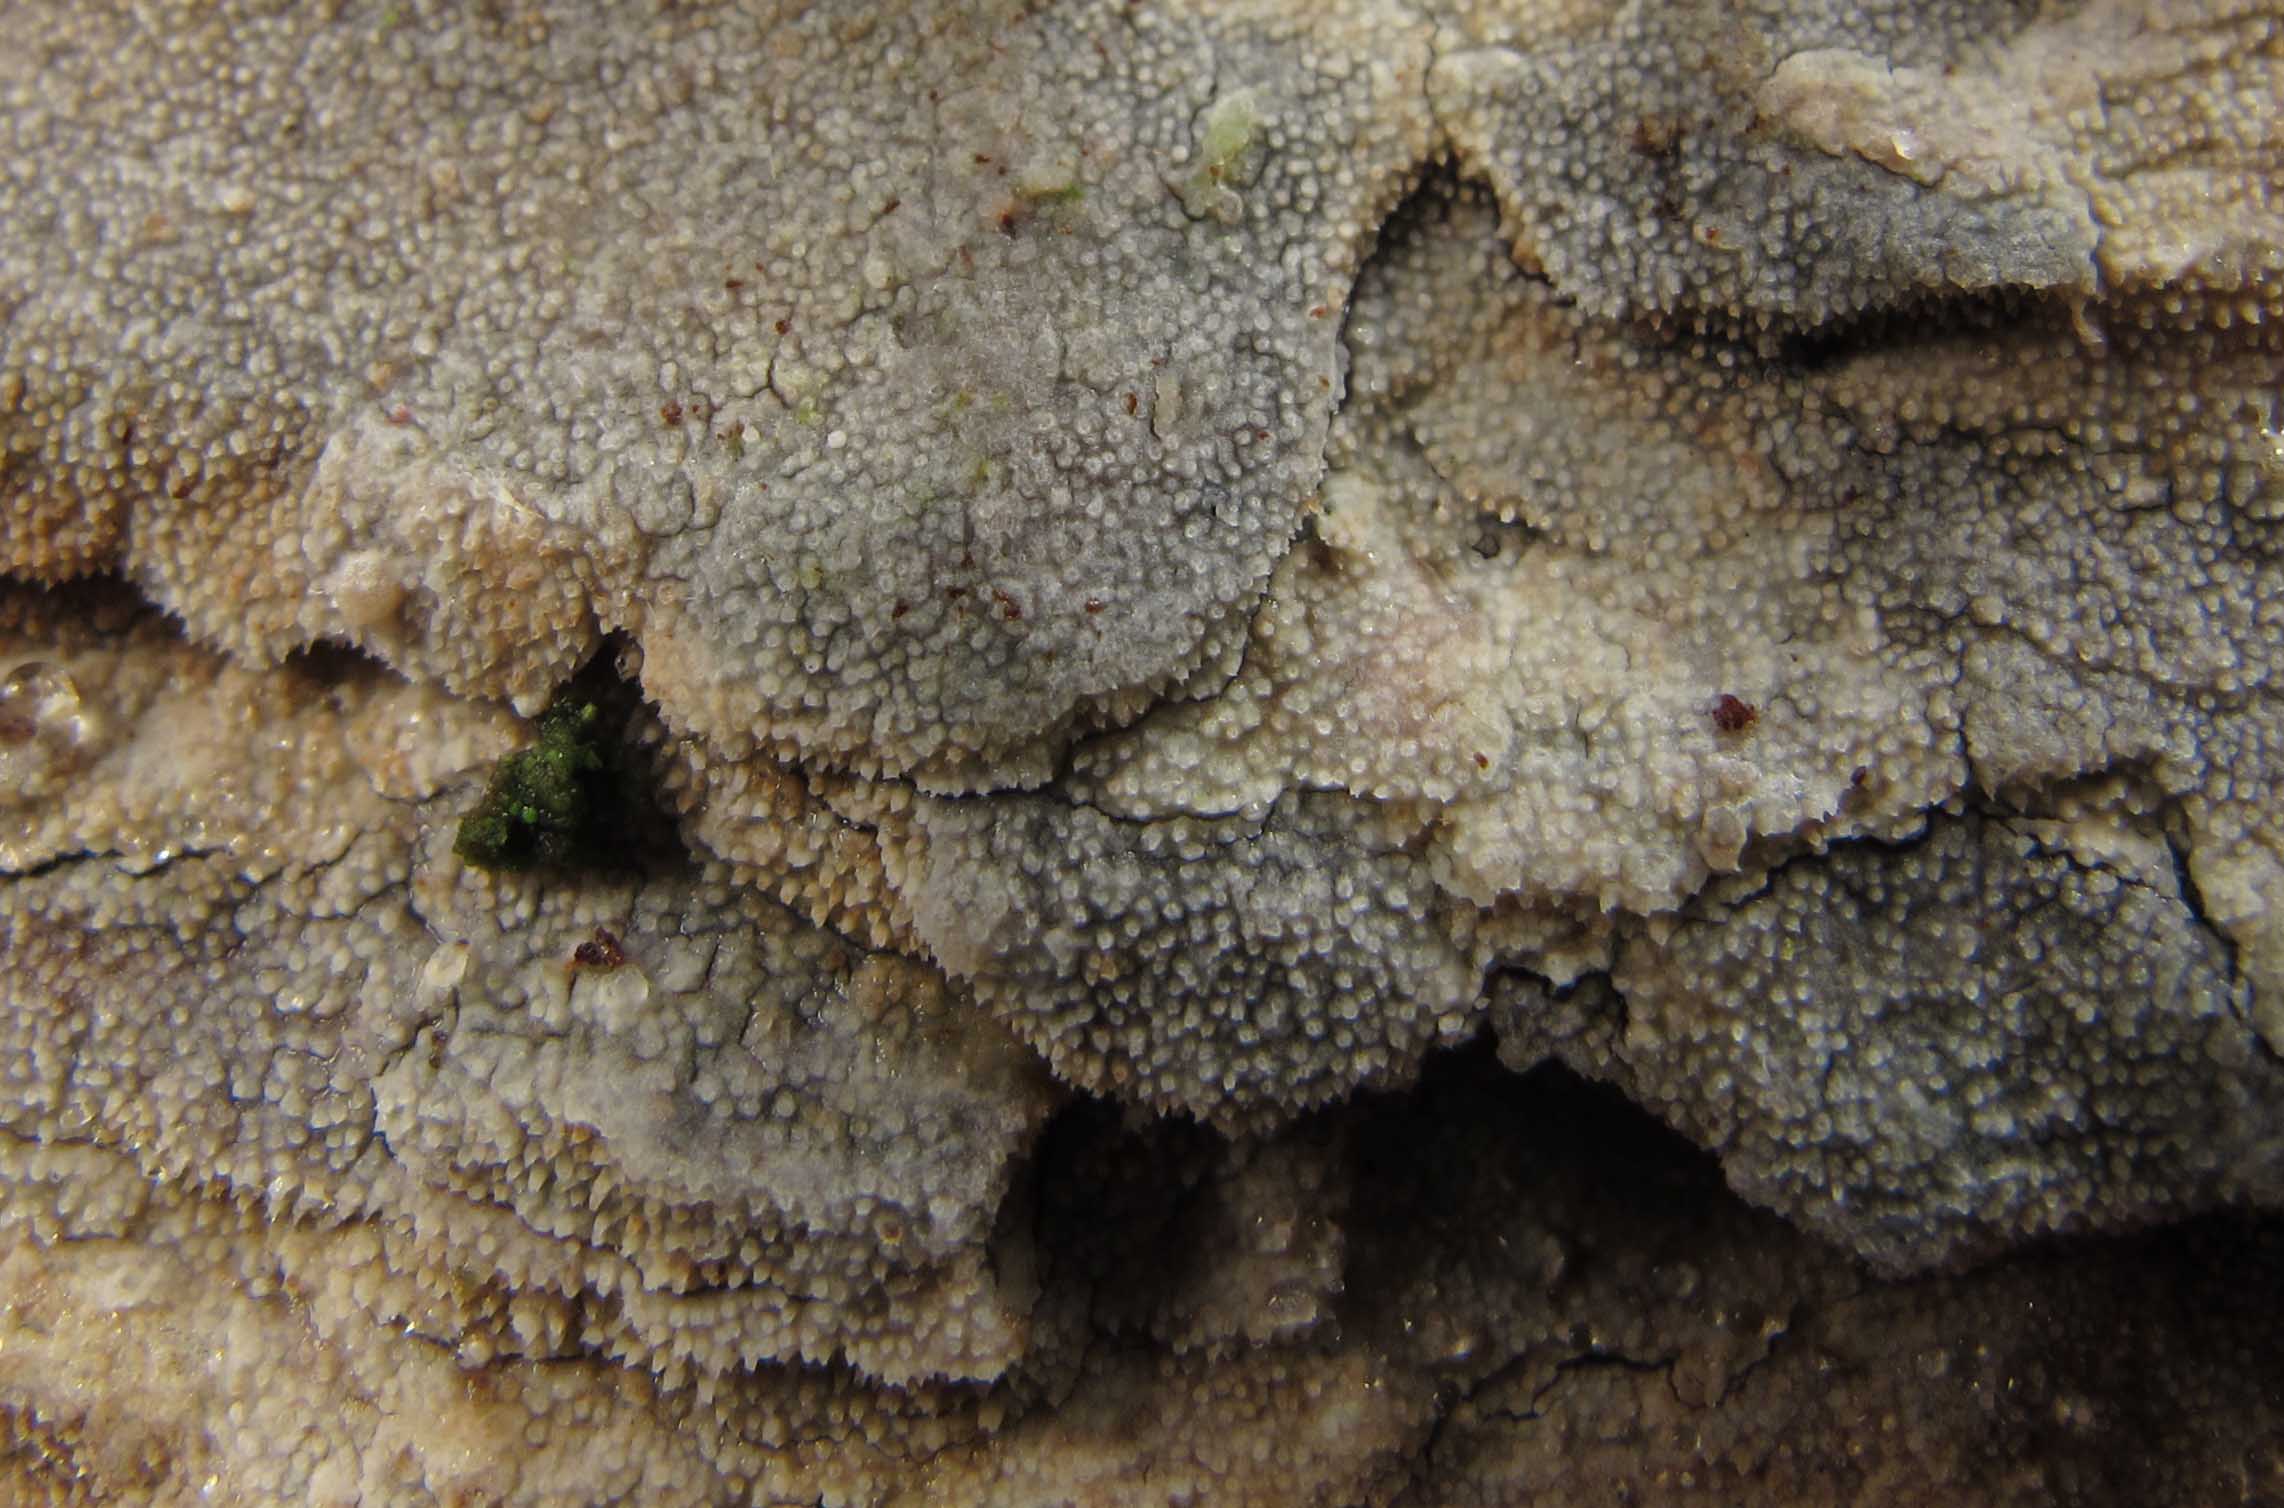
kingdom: Fungi
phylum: Basidiomycota
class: Agaricomycetes
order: Hymenochaetales
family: Rickenellaceae
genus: Resinicium
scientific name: Resinicium bicolor
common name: almindelig vokstand
